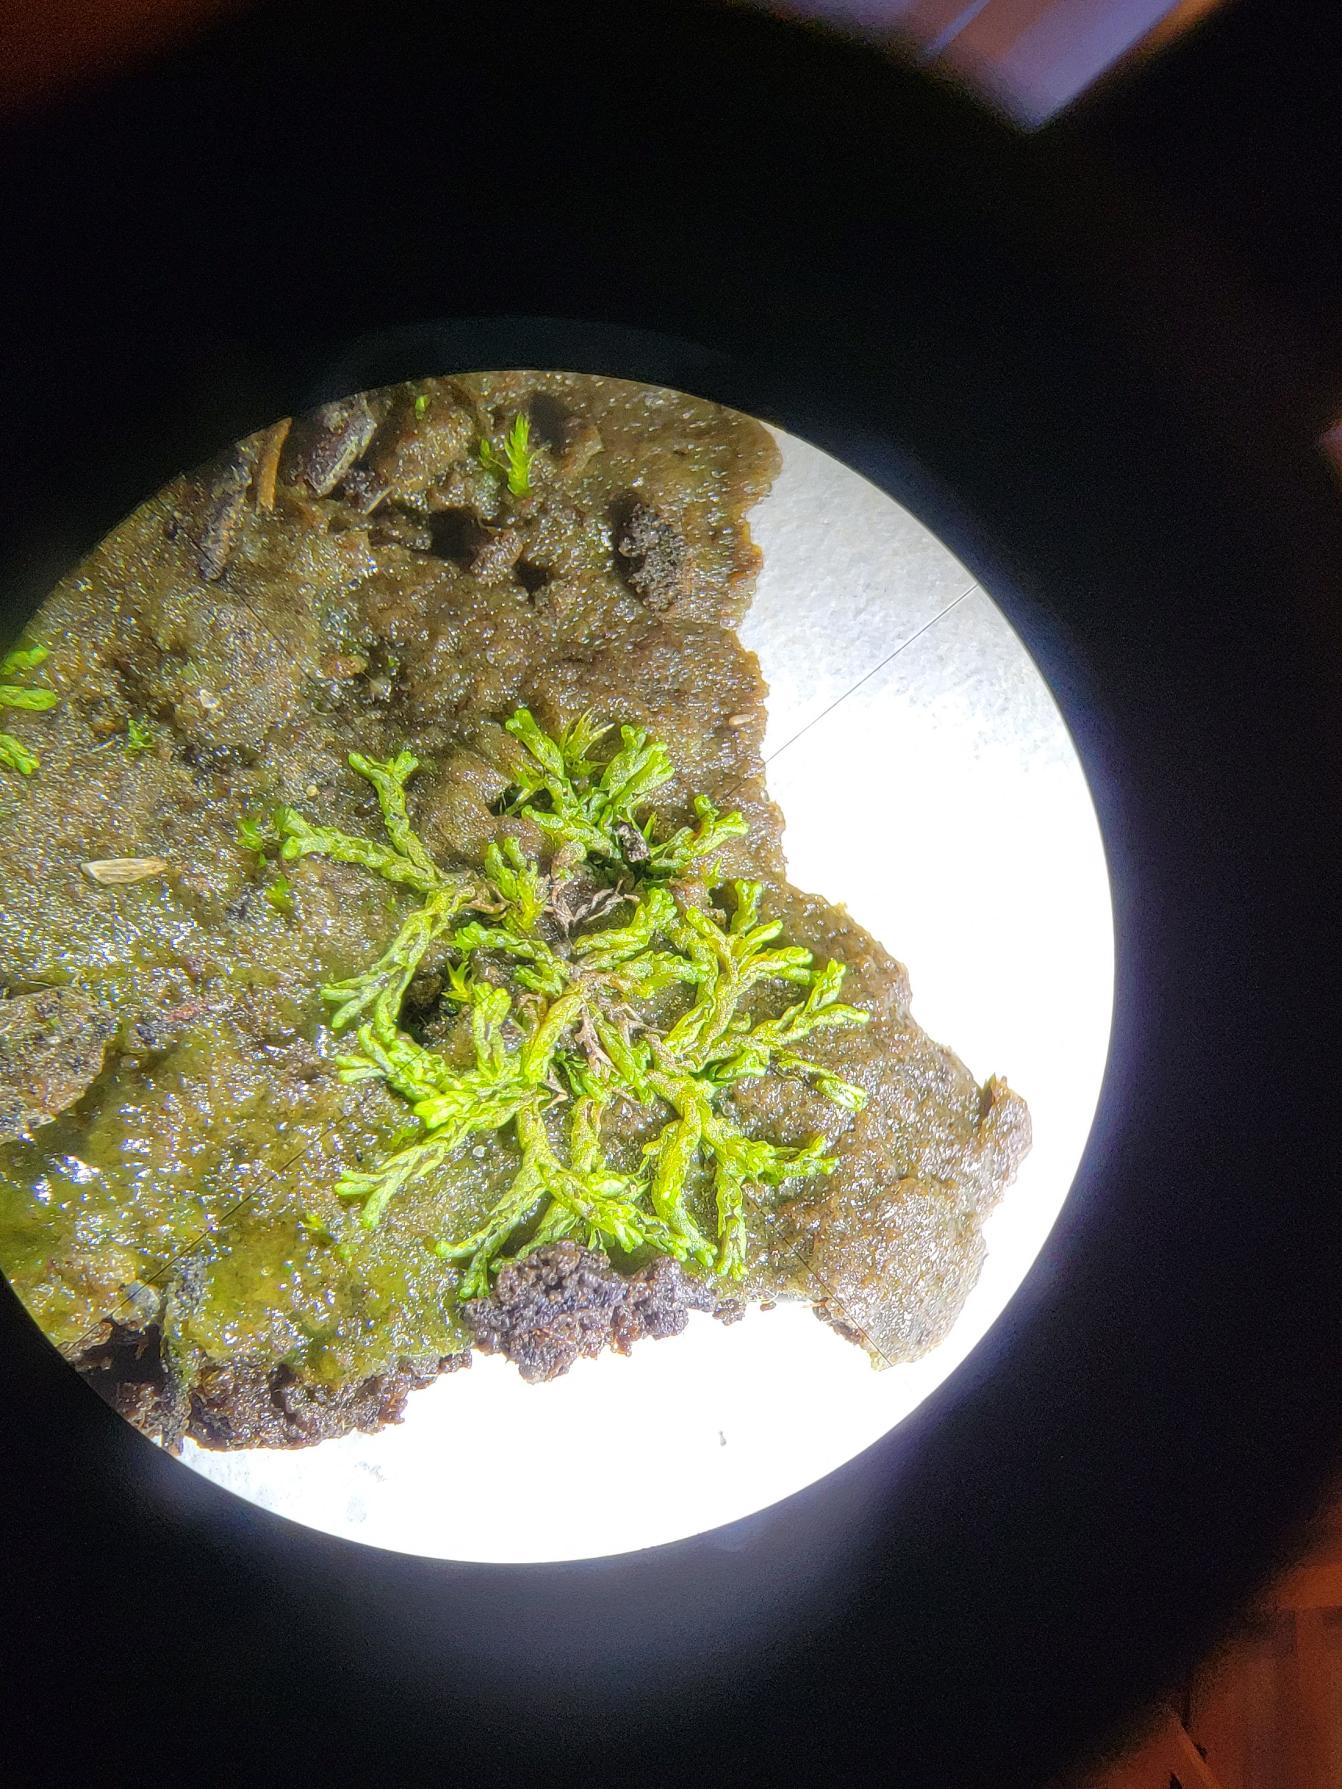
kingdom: Plantae
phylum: Marchantiophyta
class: Jungermanniopsida
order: Fossombroniales
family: Fossombroniaceae
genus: Fossombronia
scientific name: Fossombronia
